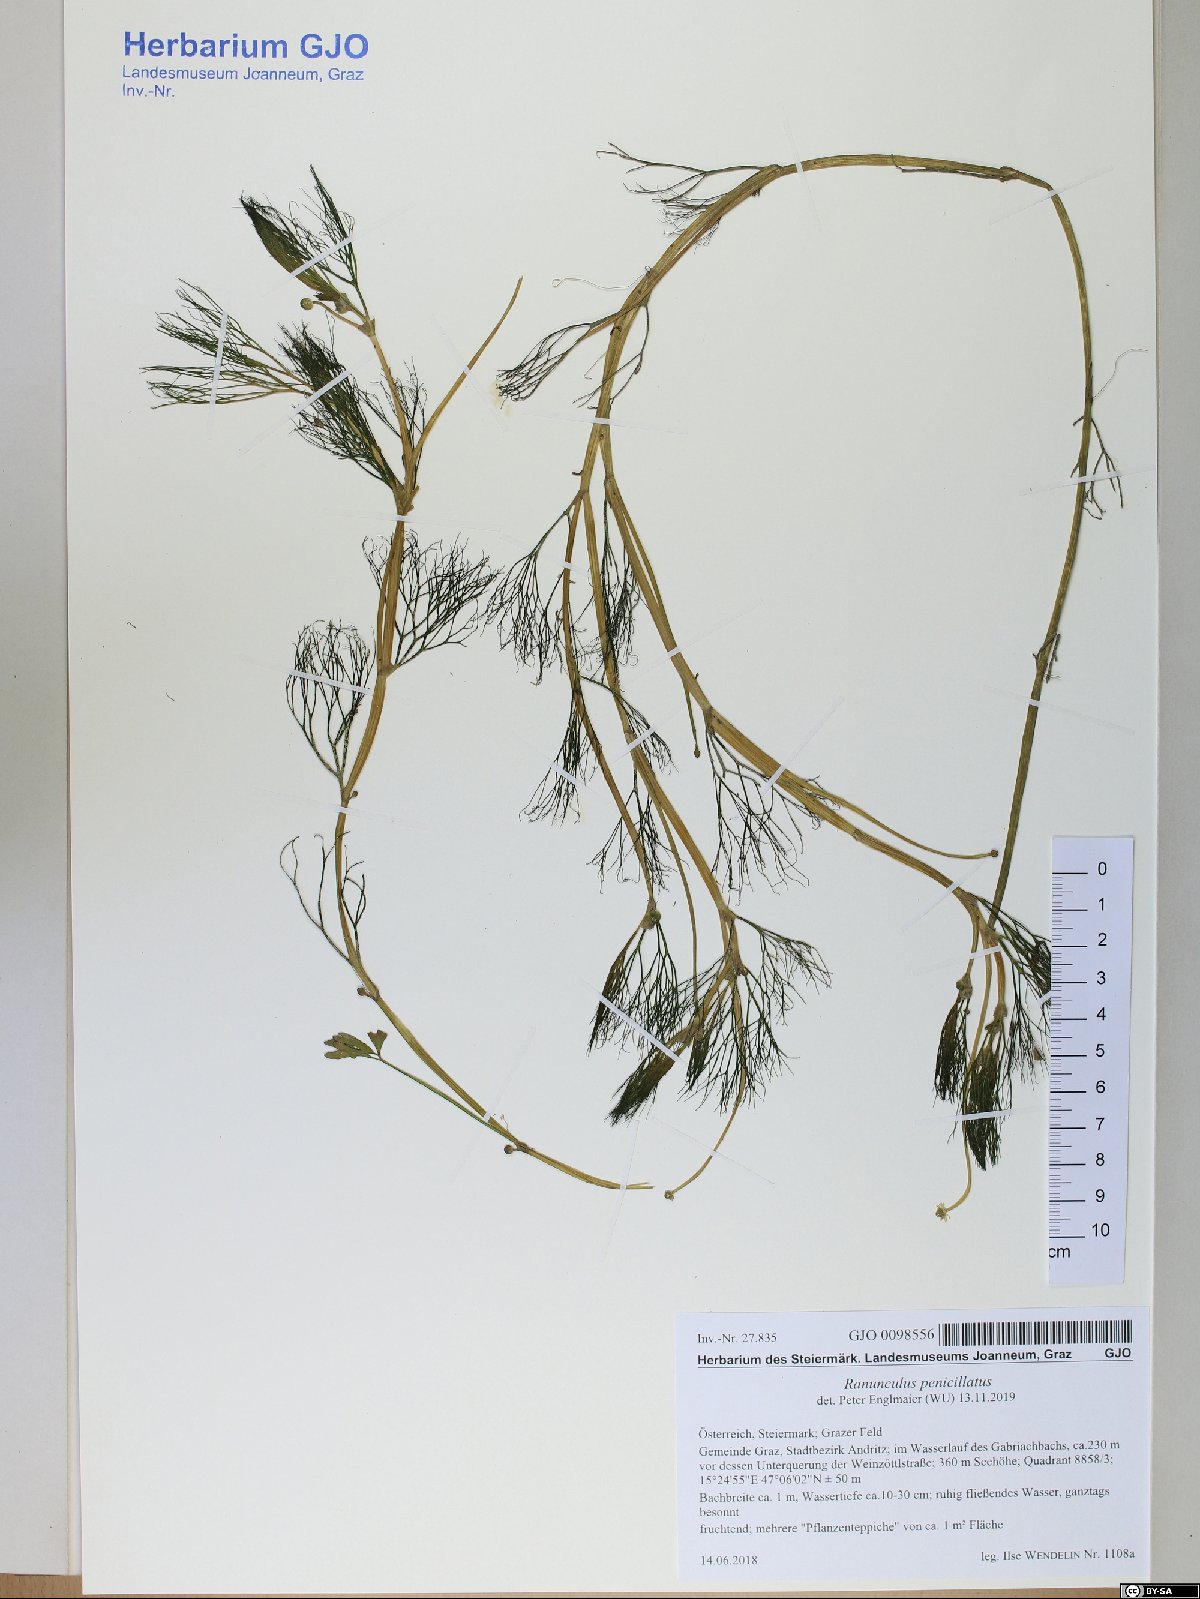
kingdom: Plantae
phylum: Tracheophyta
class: Magnoliopsida
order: Ranunculales
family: Ranunculaceae
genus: Ranunculus
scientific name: Ranunculus penicillatus
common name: Stream water-crowfoot
